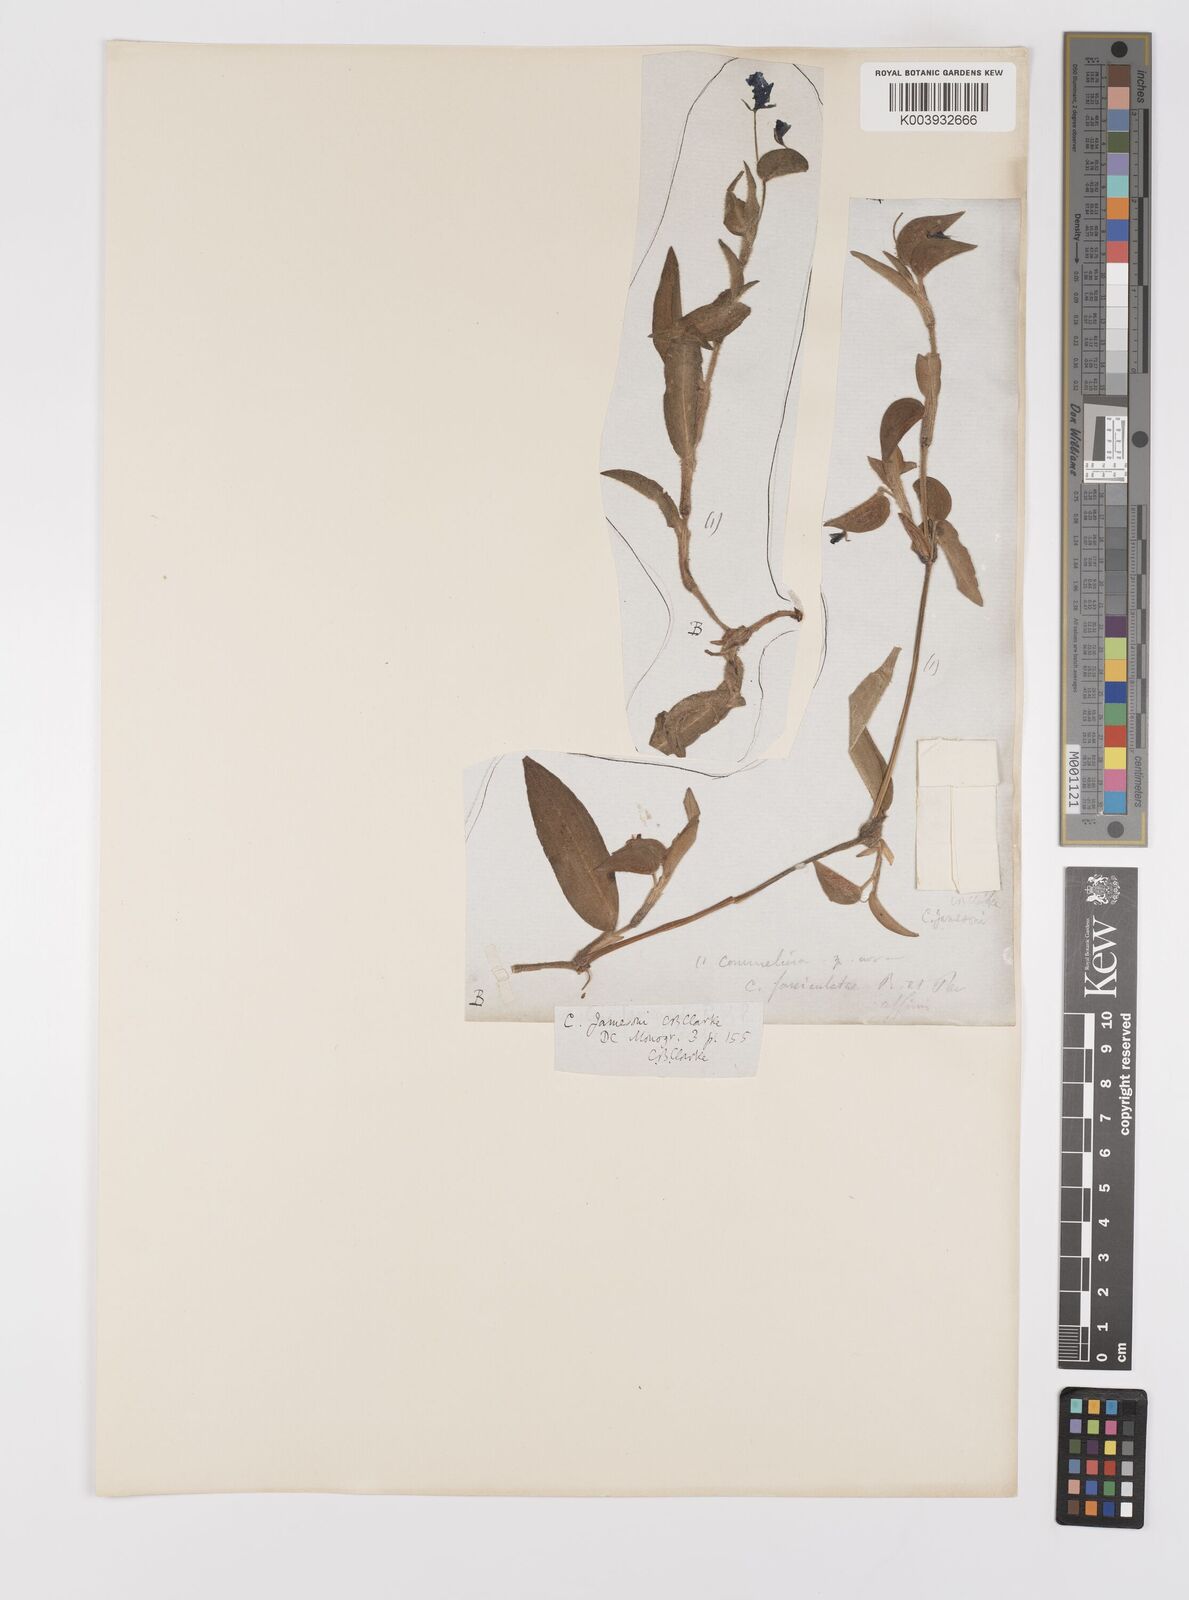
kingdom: Plantae
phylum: Tracheophyta
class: Liliopsida
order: Commelinales
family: Commelinaceae
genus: Commelina
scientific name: Commelina jamesonii
